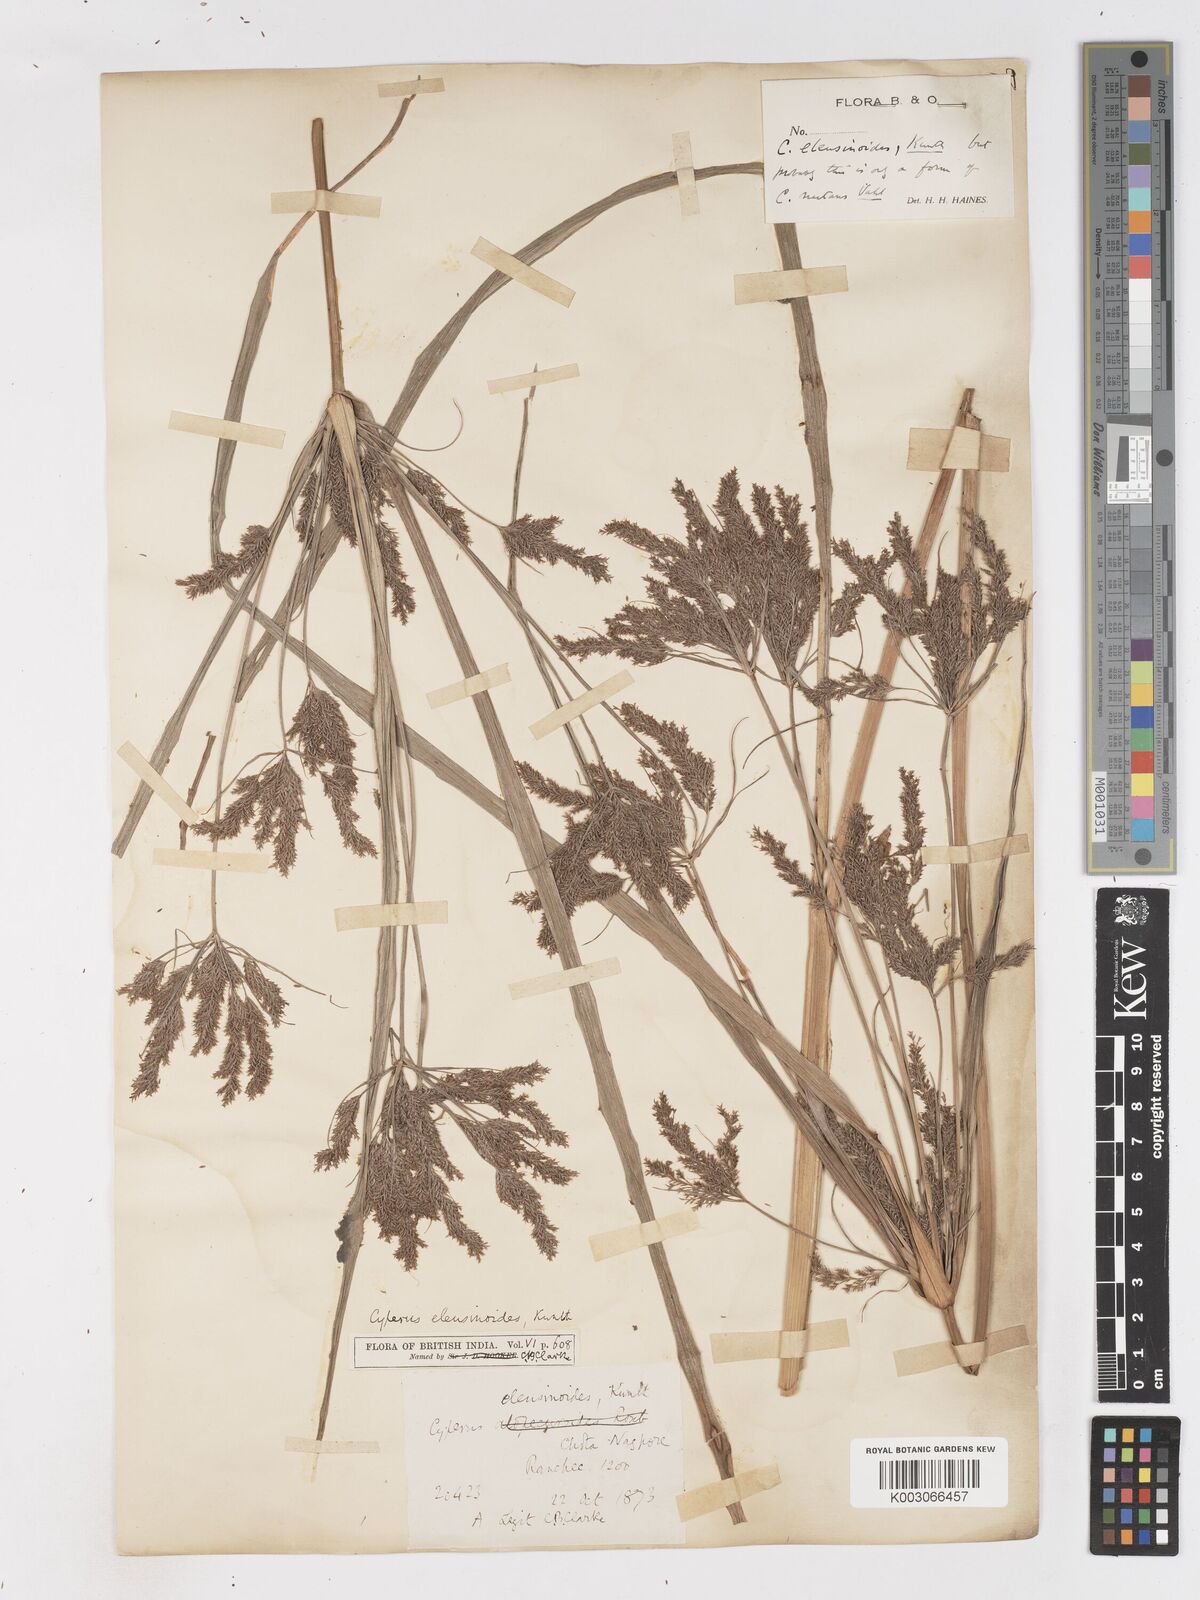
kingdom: Plantae
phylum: Tracheophyta
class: Liliopsida
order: Poales
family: Cyperaceae
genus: Cyperus
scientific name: Cyperus nutans
